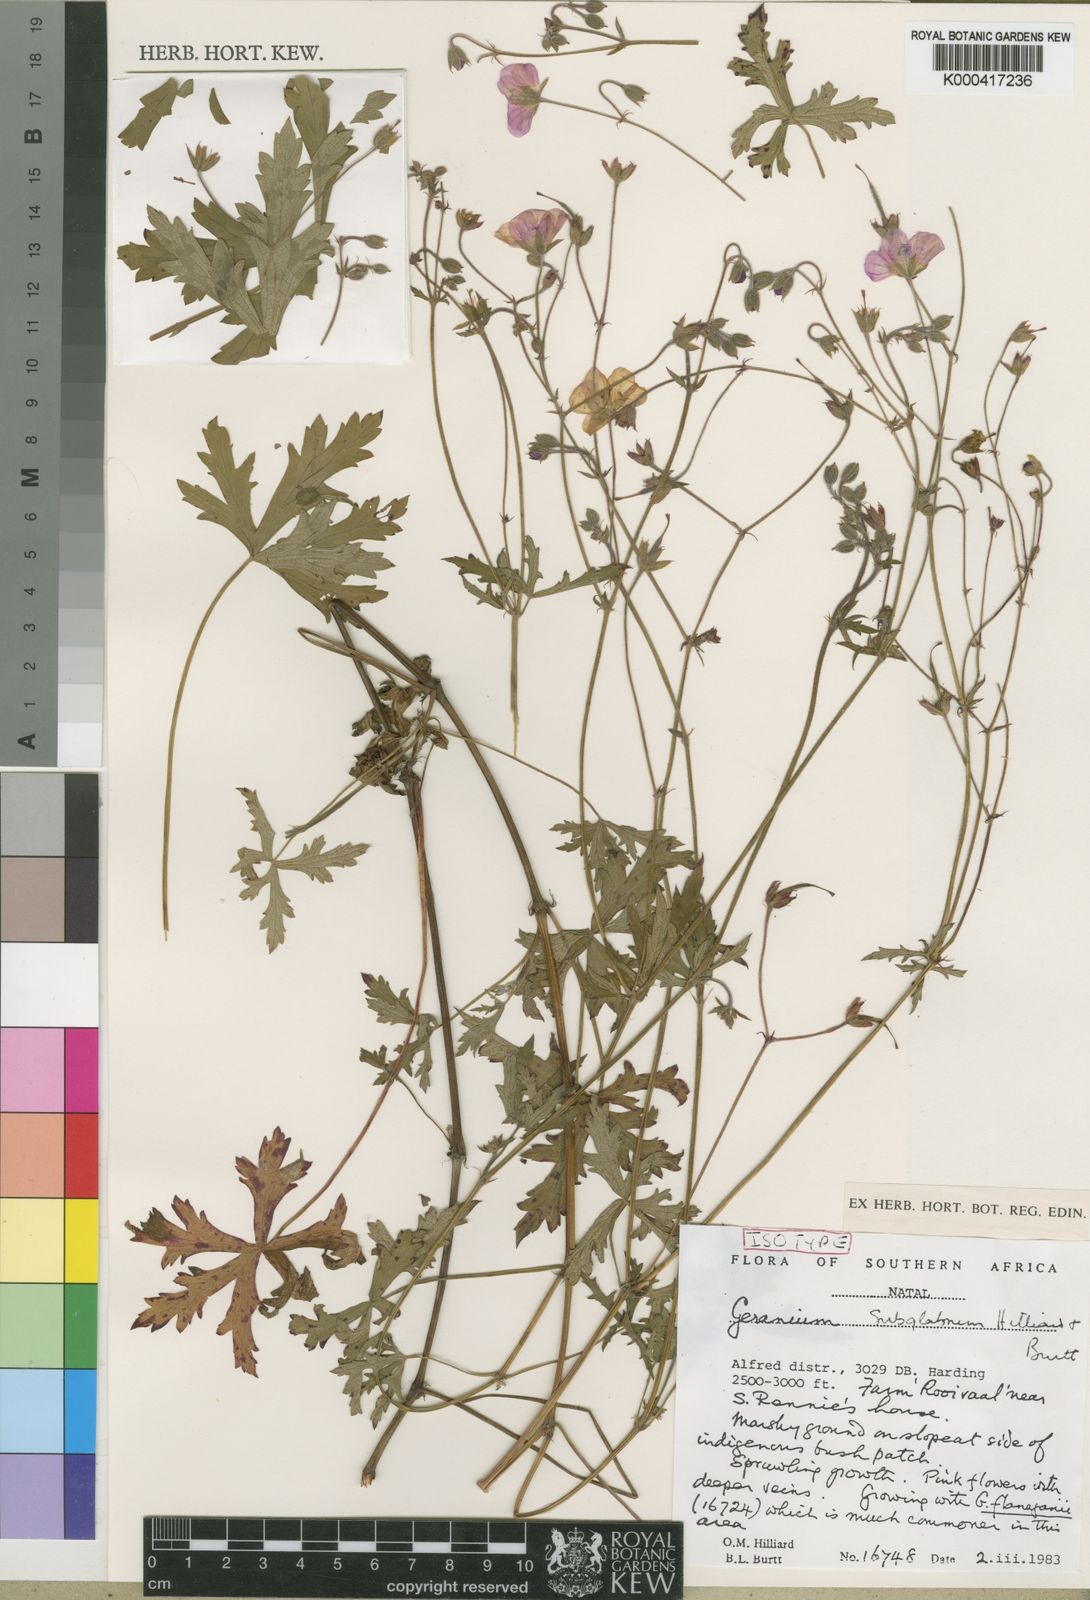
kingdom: Plantae
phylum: Tracheophyta
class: Magnoliopsida
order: Geraniales
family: Geraniaceae
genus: Geranium
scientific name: Geranium subglabrum
